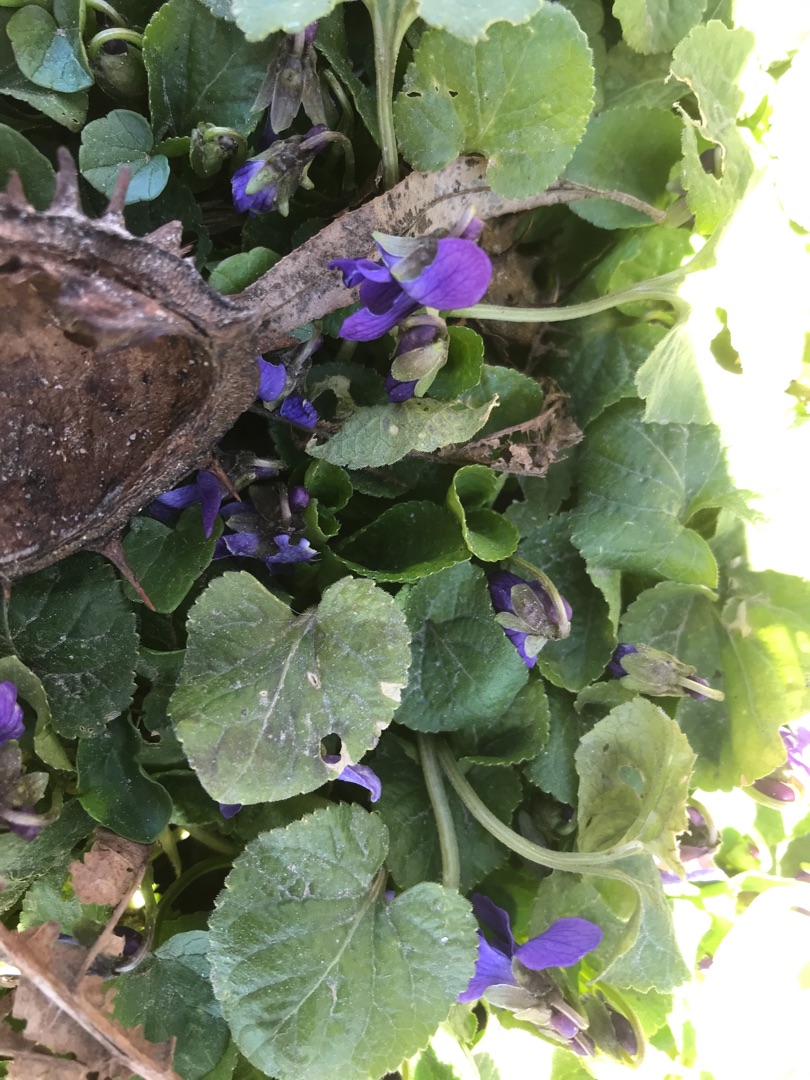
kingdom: Plantae
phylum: Tracheophyta
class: Magnoliopsida
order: Malpighiales
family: Violaceae
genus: Viola
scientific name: Viola odorata
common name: Marts-viol
